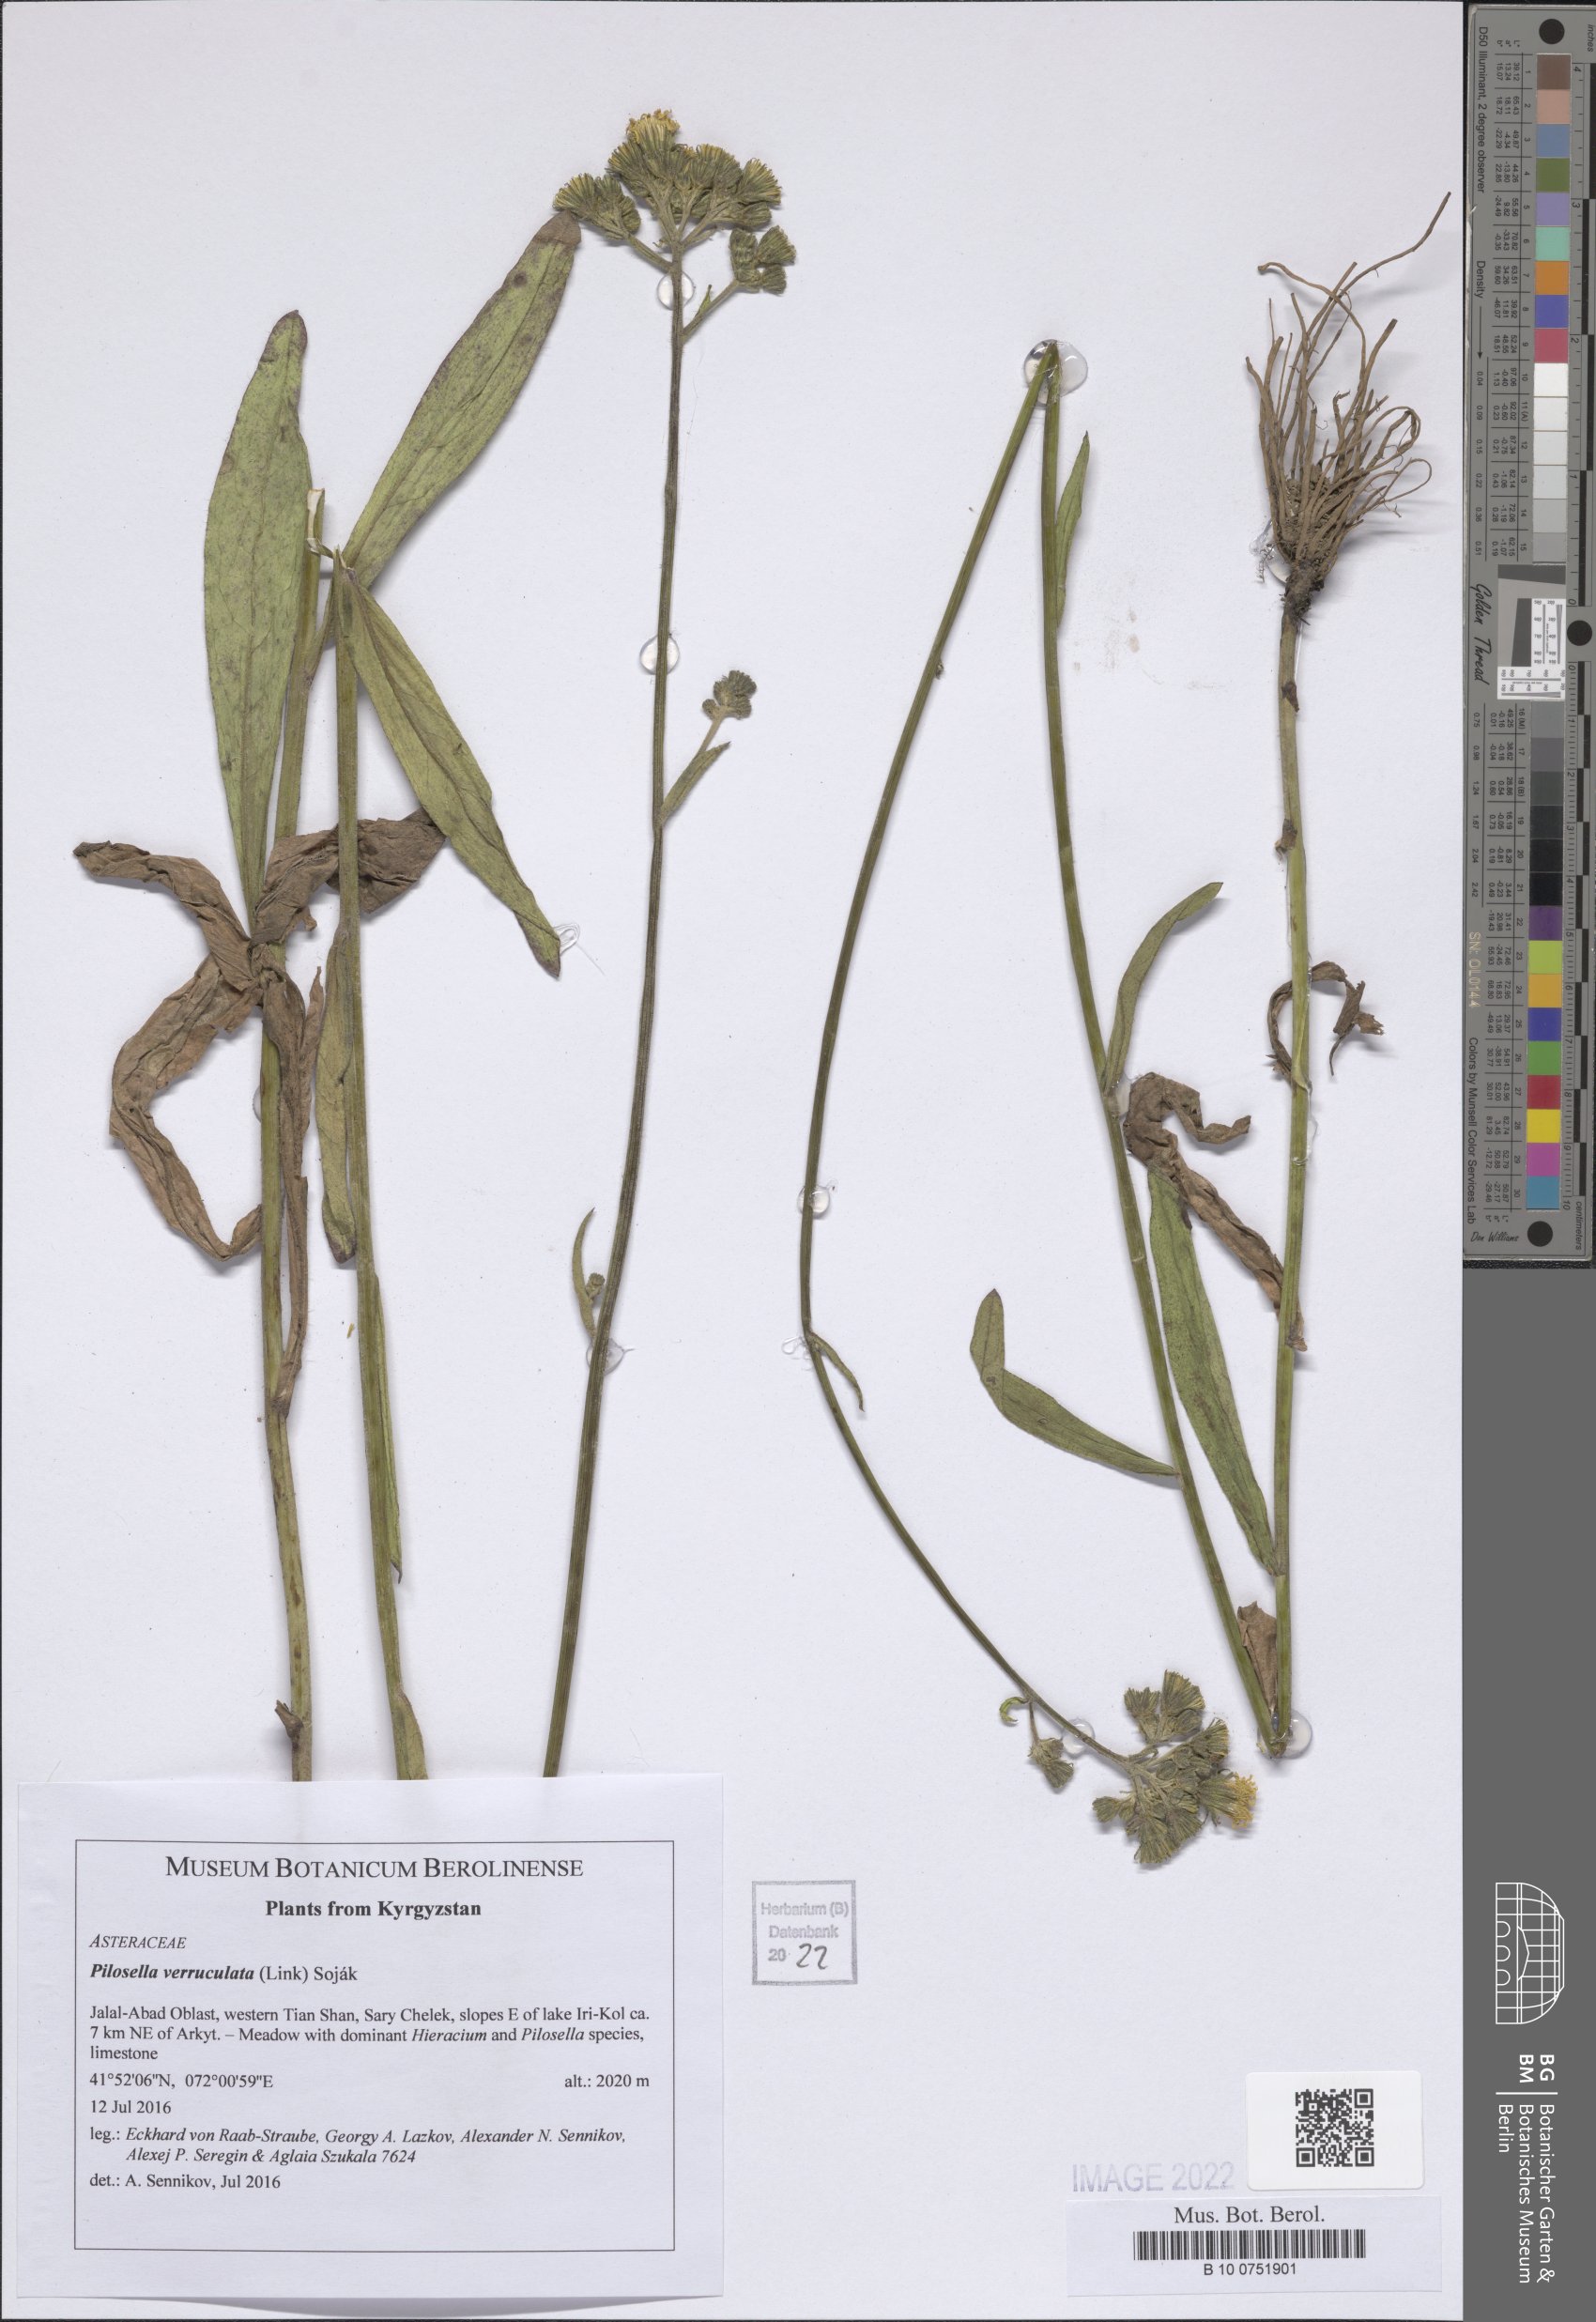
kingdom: Plantae
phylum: Tracheophyta
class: Magnoliopsida
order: Asterales
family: Asteraceae
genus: Pilosella
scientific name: Pilosella verruculata
